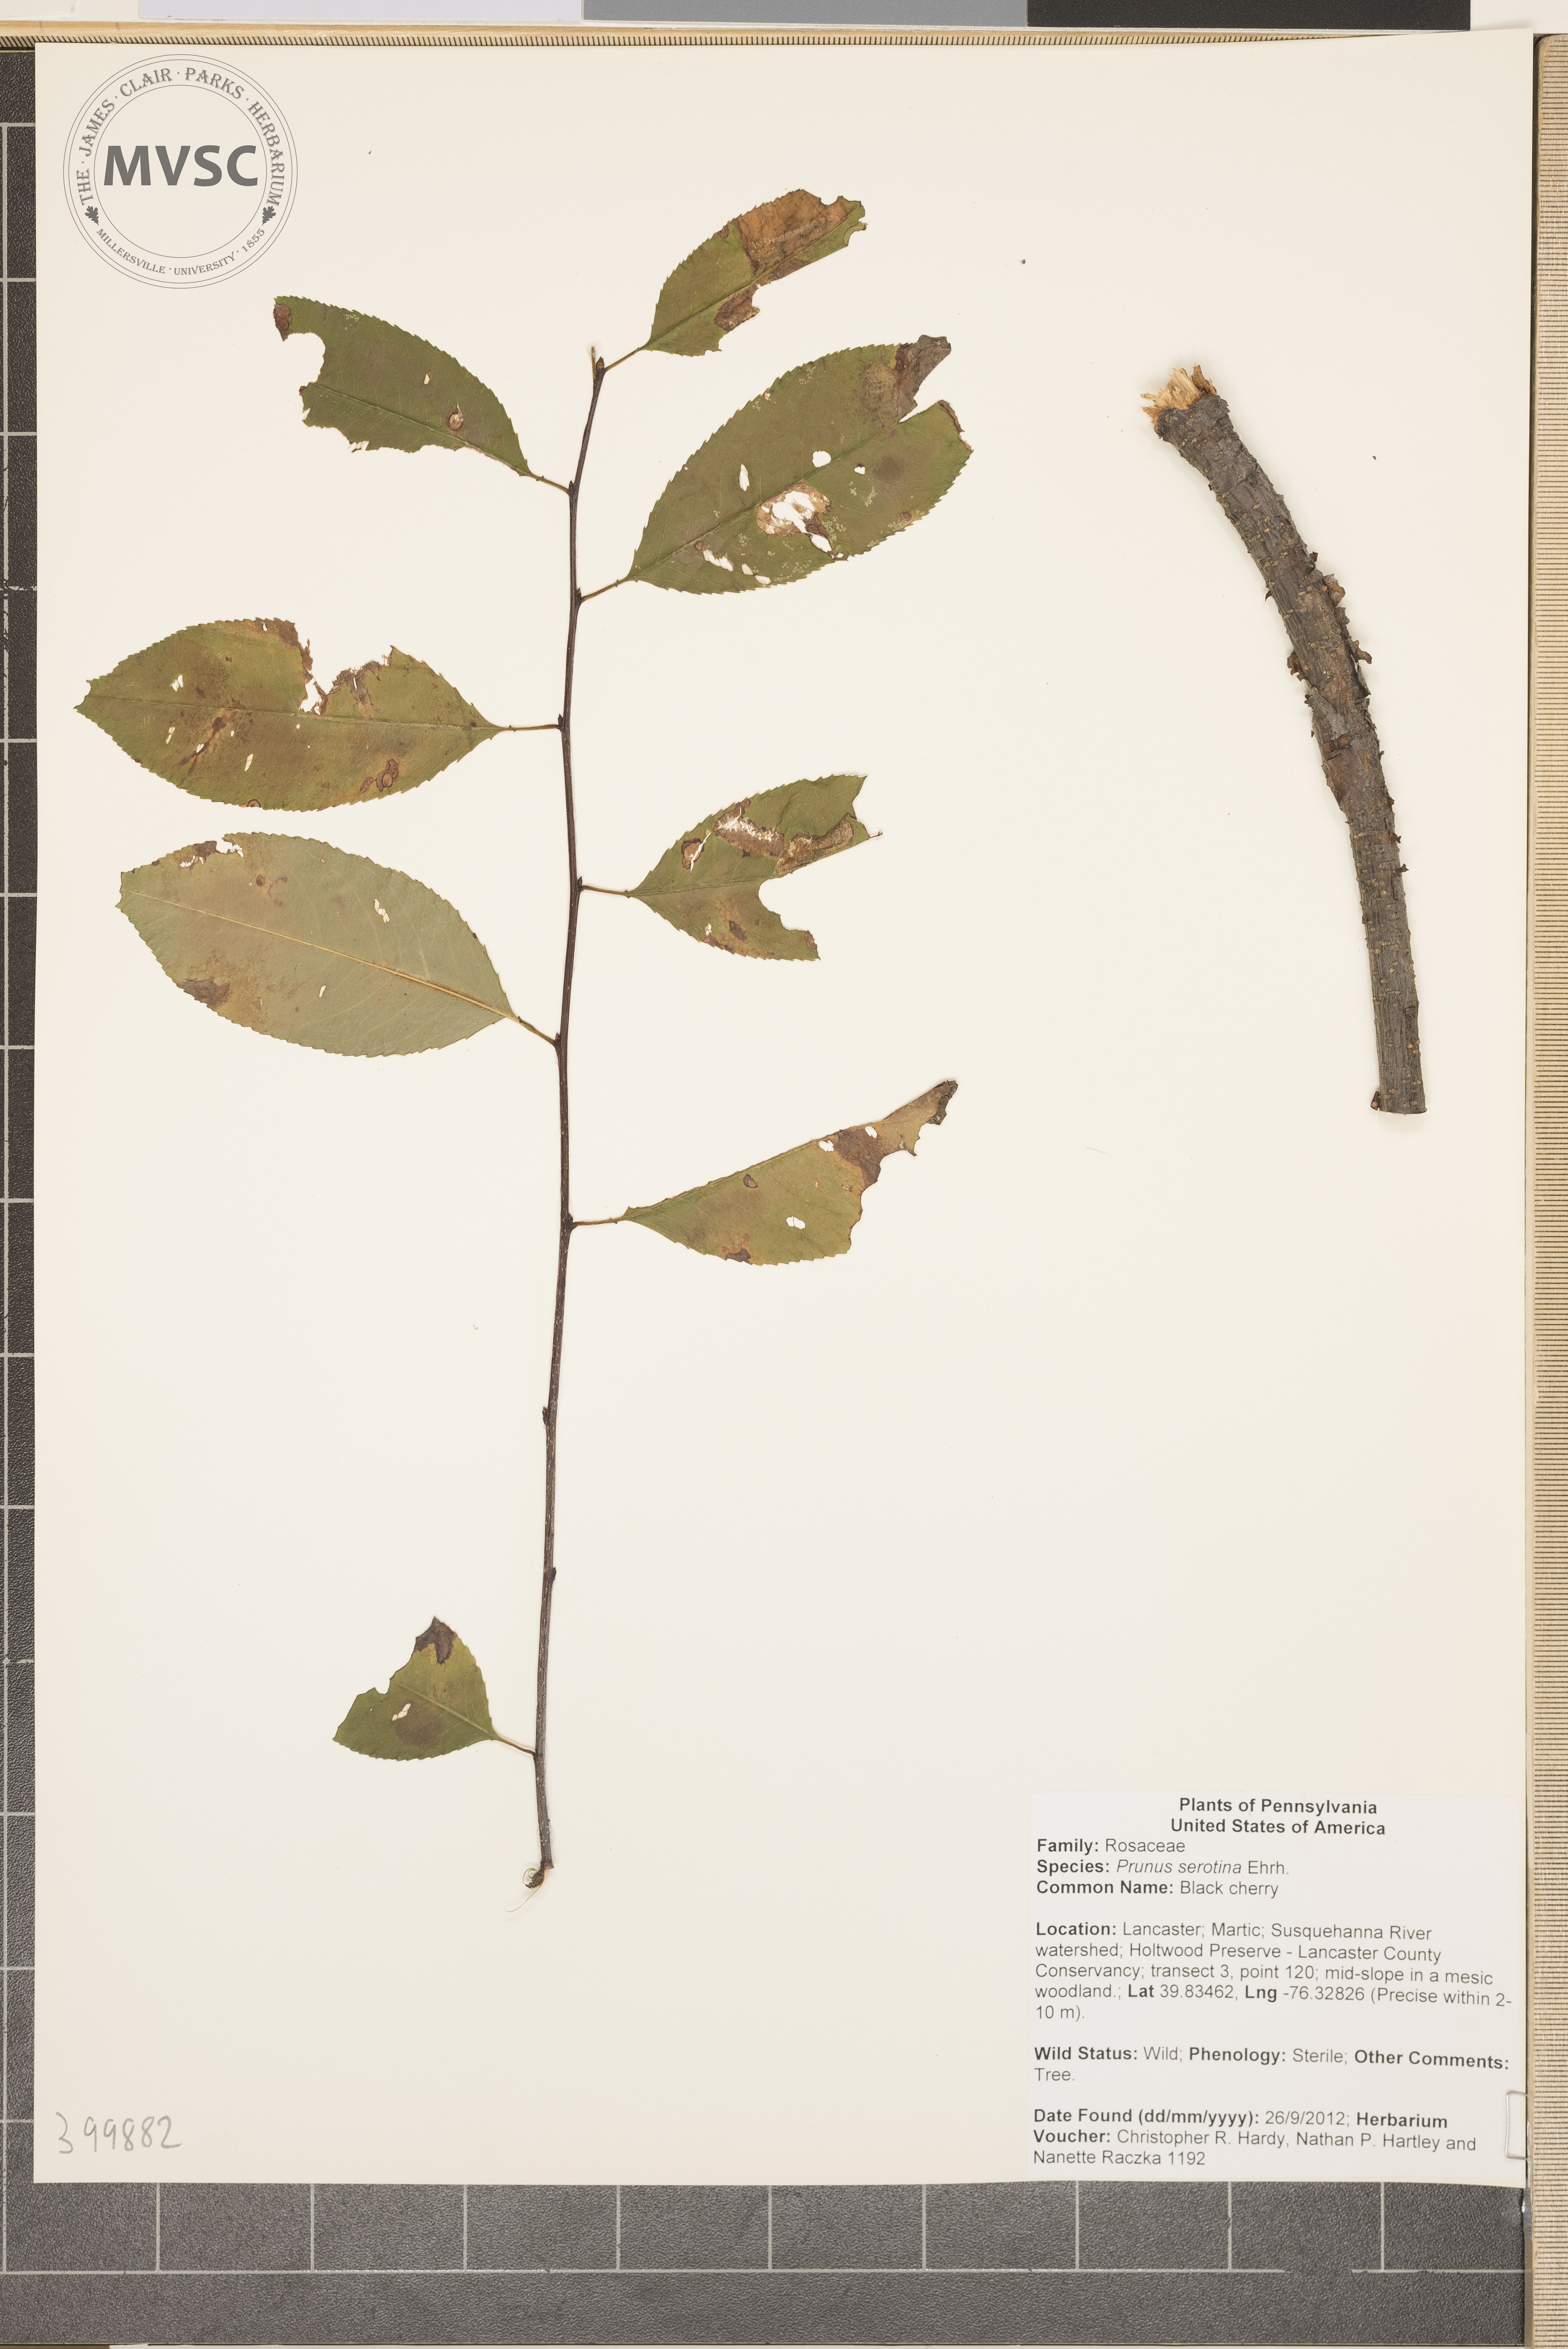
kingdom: Plantae
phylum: Tracheophyta
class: Magnoliopsida
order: Rosales
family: Rosaceae
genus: Prunus
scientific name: Prunus serotina
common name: Black cherry
